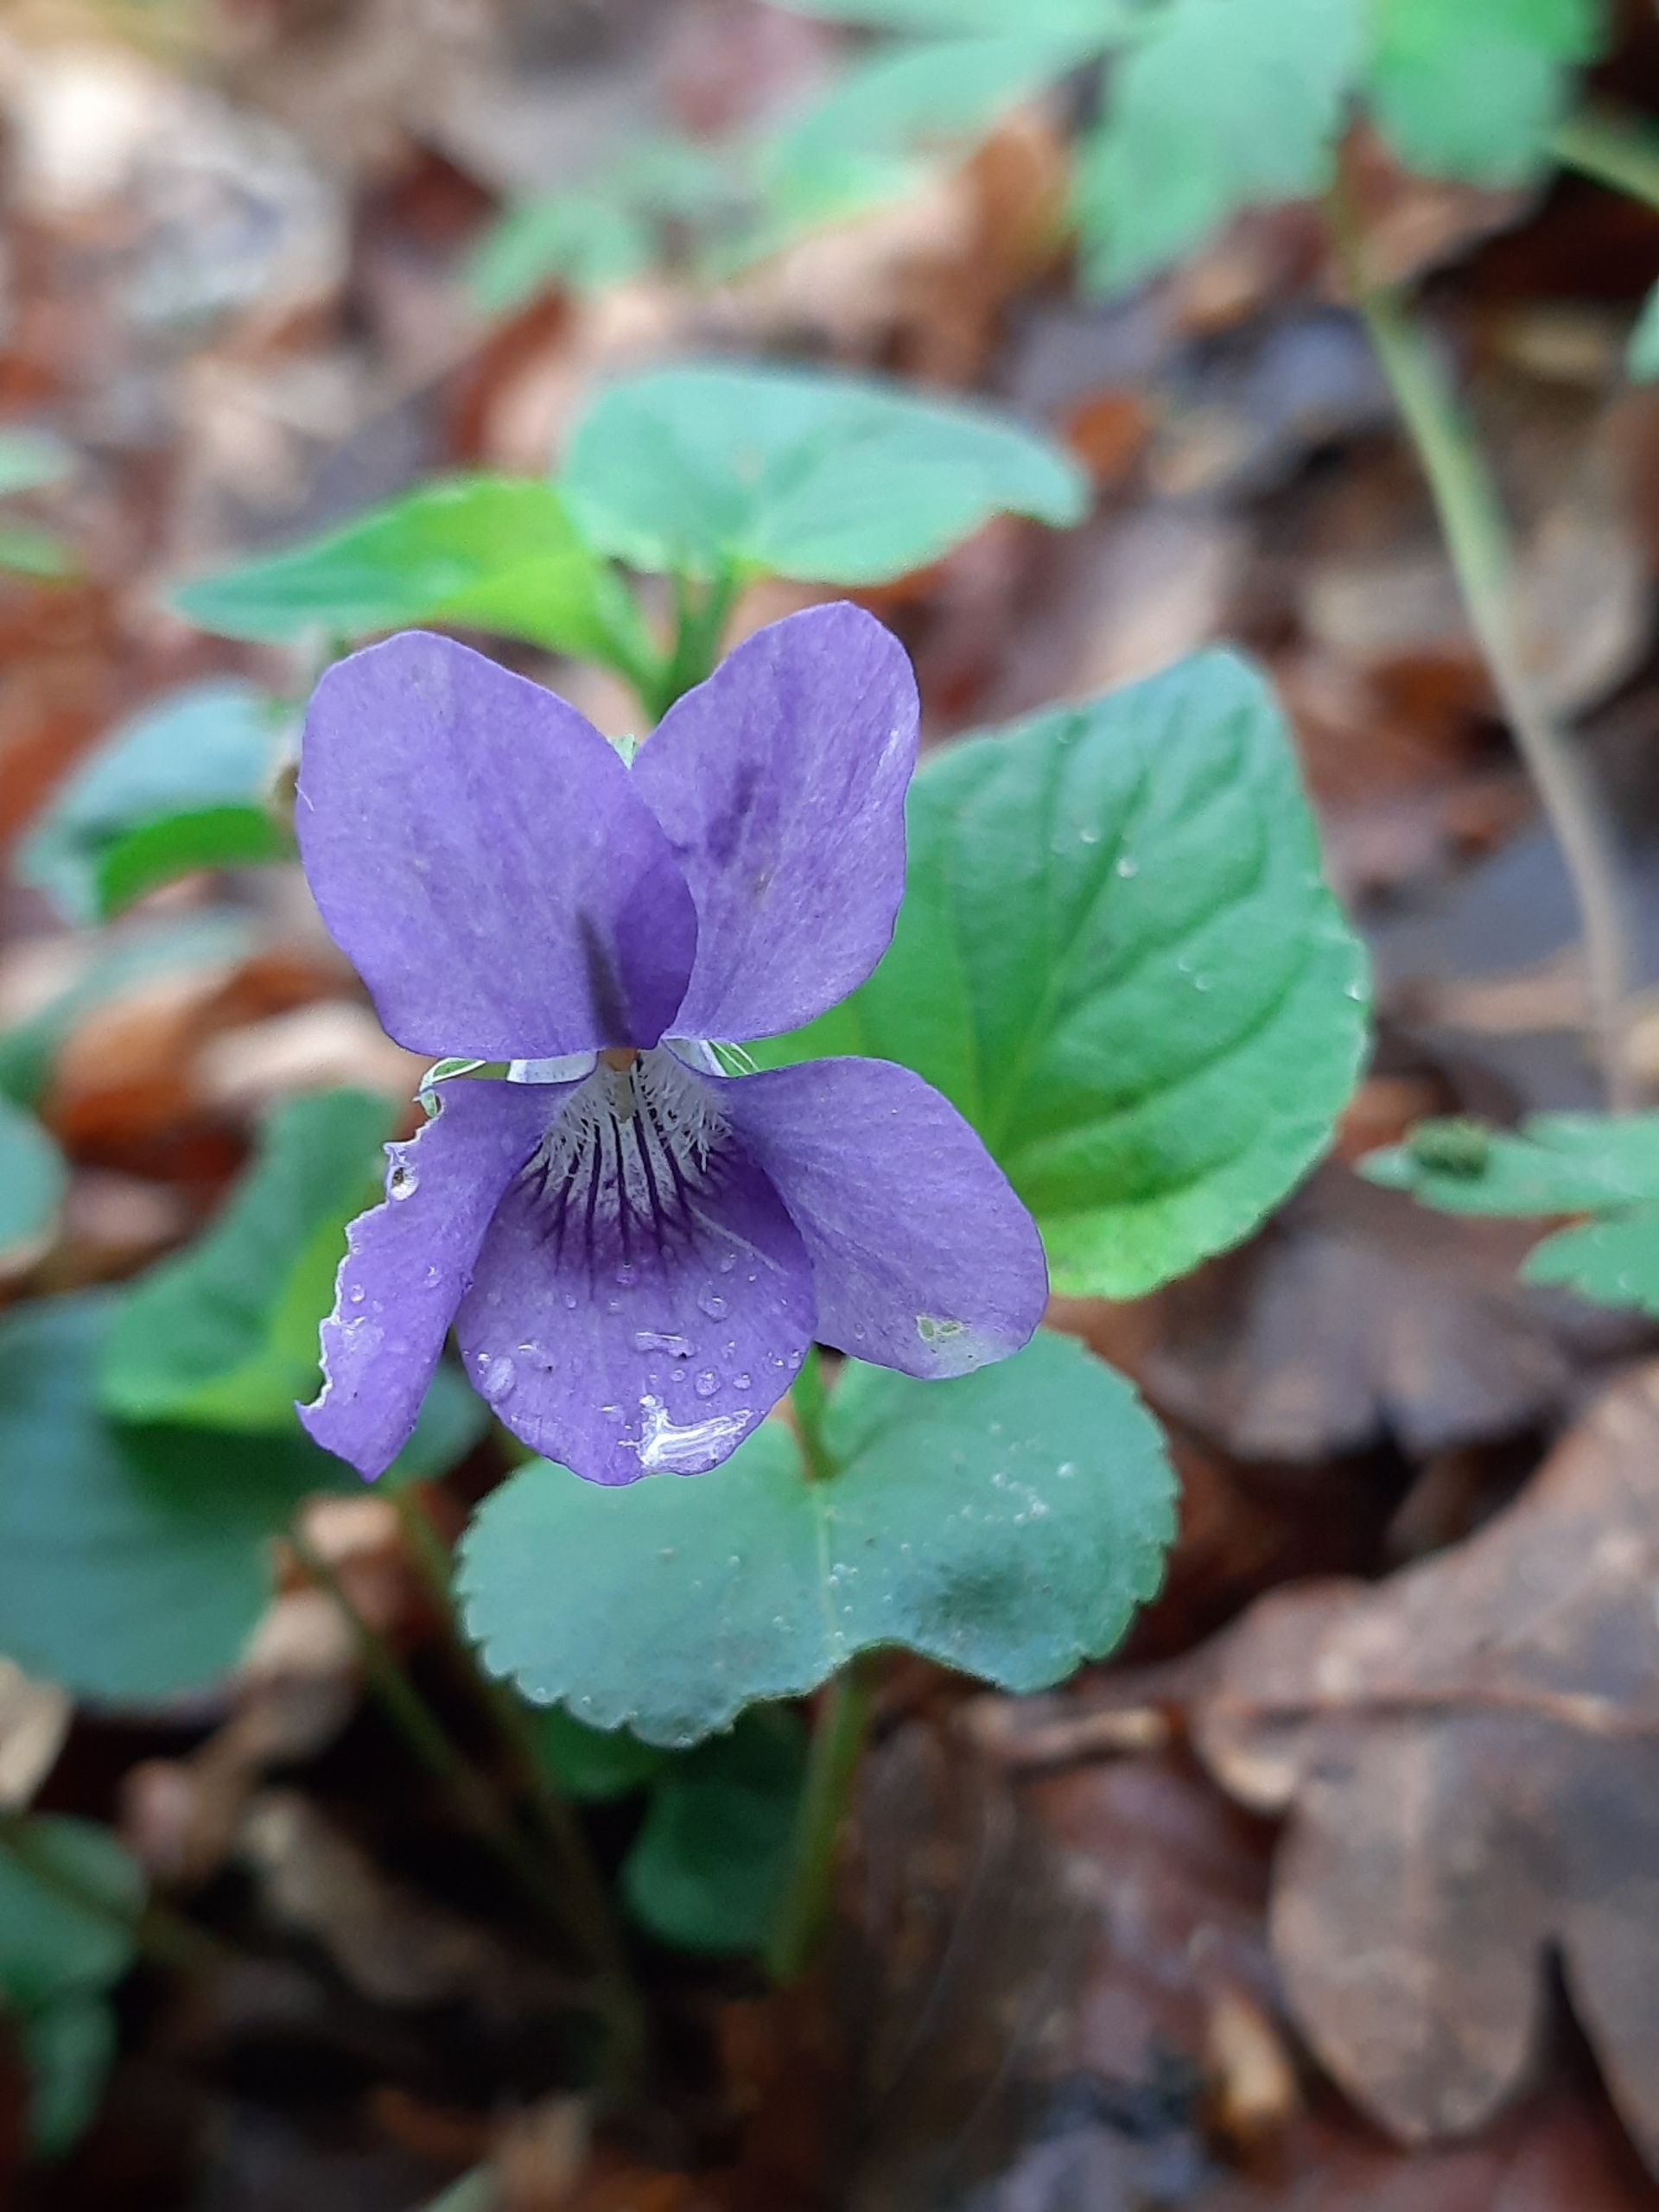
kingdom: Plantae
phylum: Tracheophyta
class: Magnoliopsida
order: Malpighiales
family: Violaceae
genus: Viola
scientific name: Viola riviniana
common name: Krat-viol
